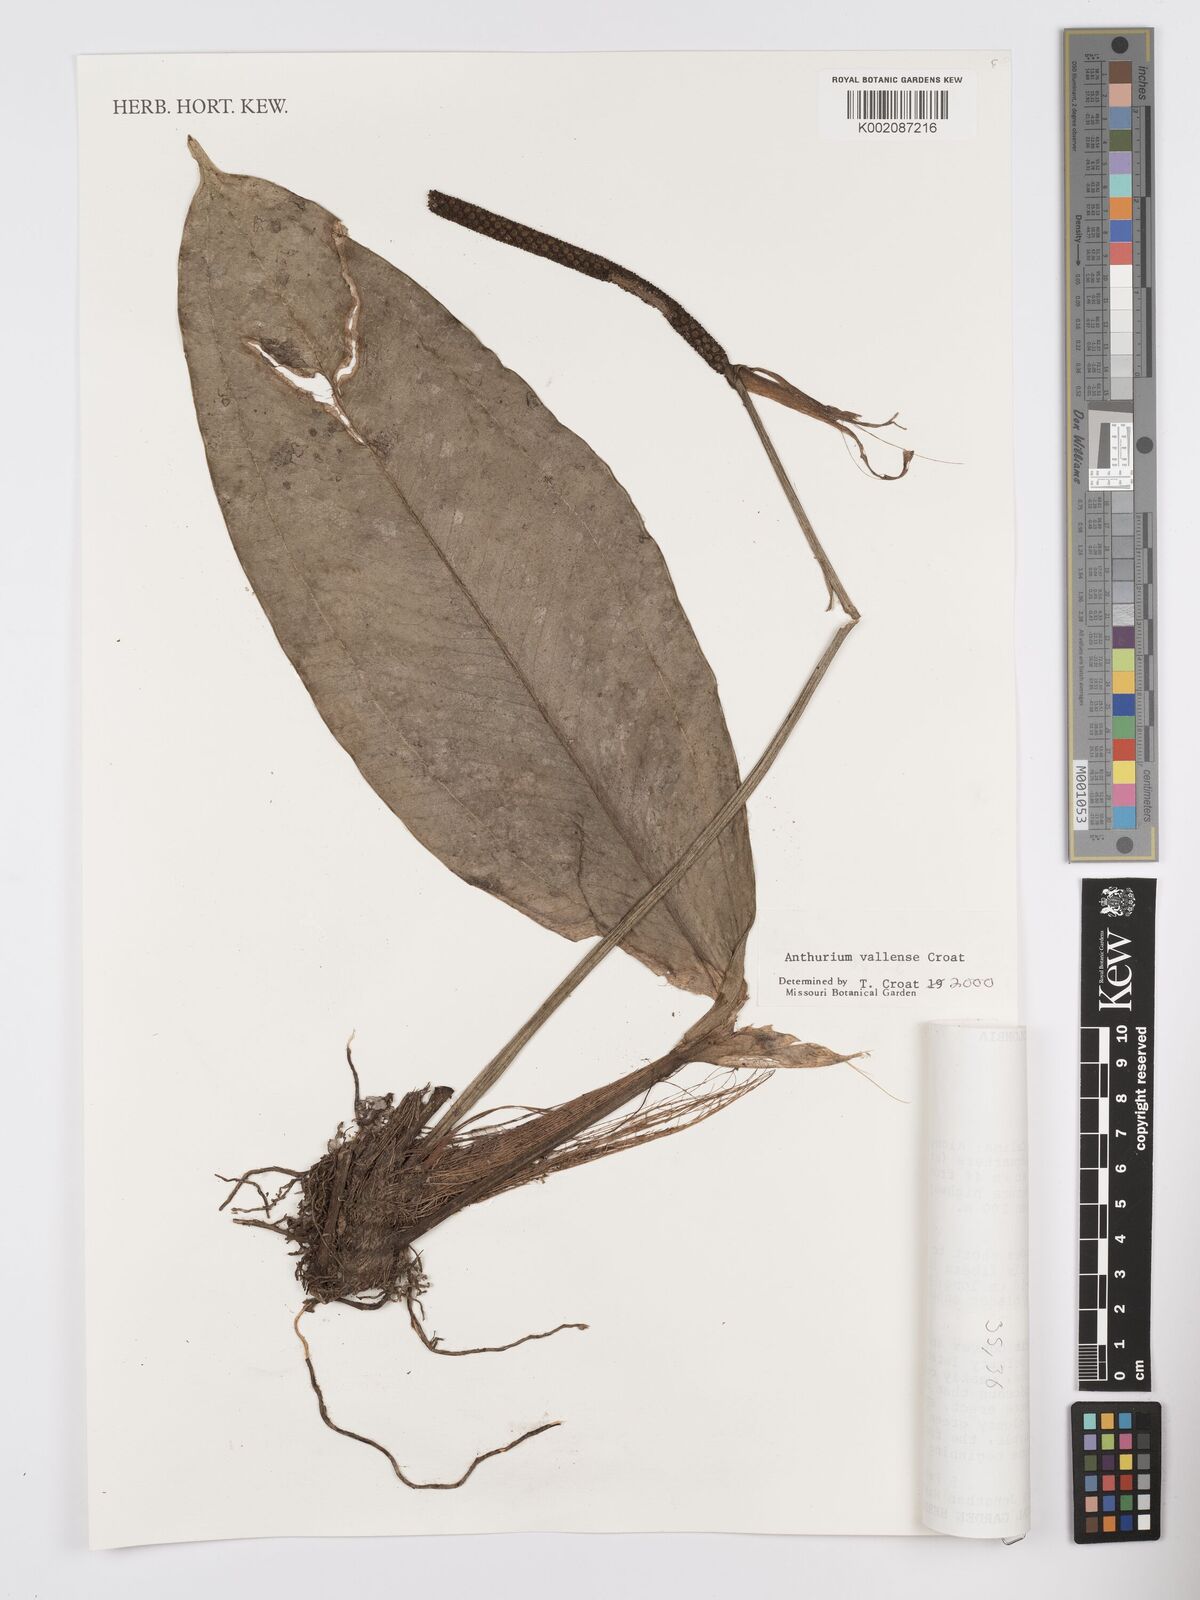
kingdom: Plantae
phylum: Tracheophyta
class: Liliopsida
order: Alismatales
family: Araceae
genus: Anthurium
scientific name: Anthurium vallense
